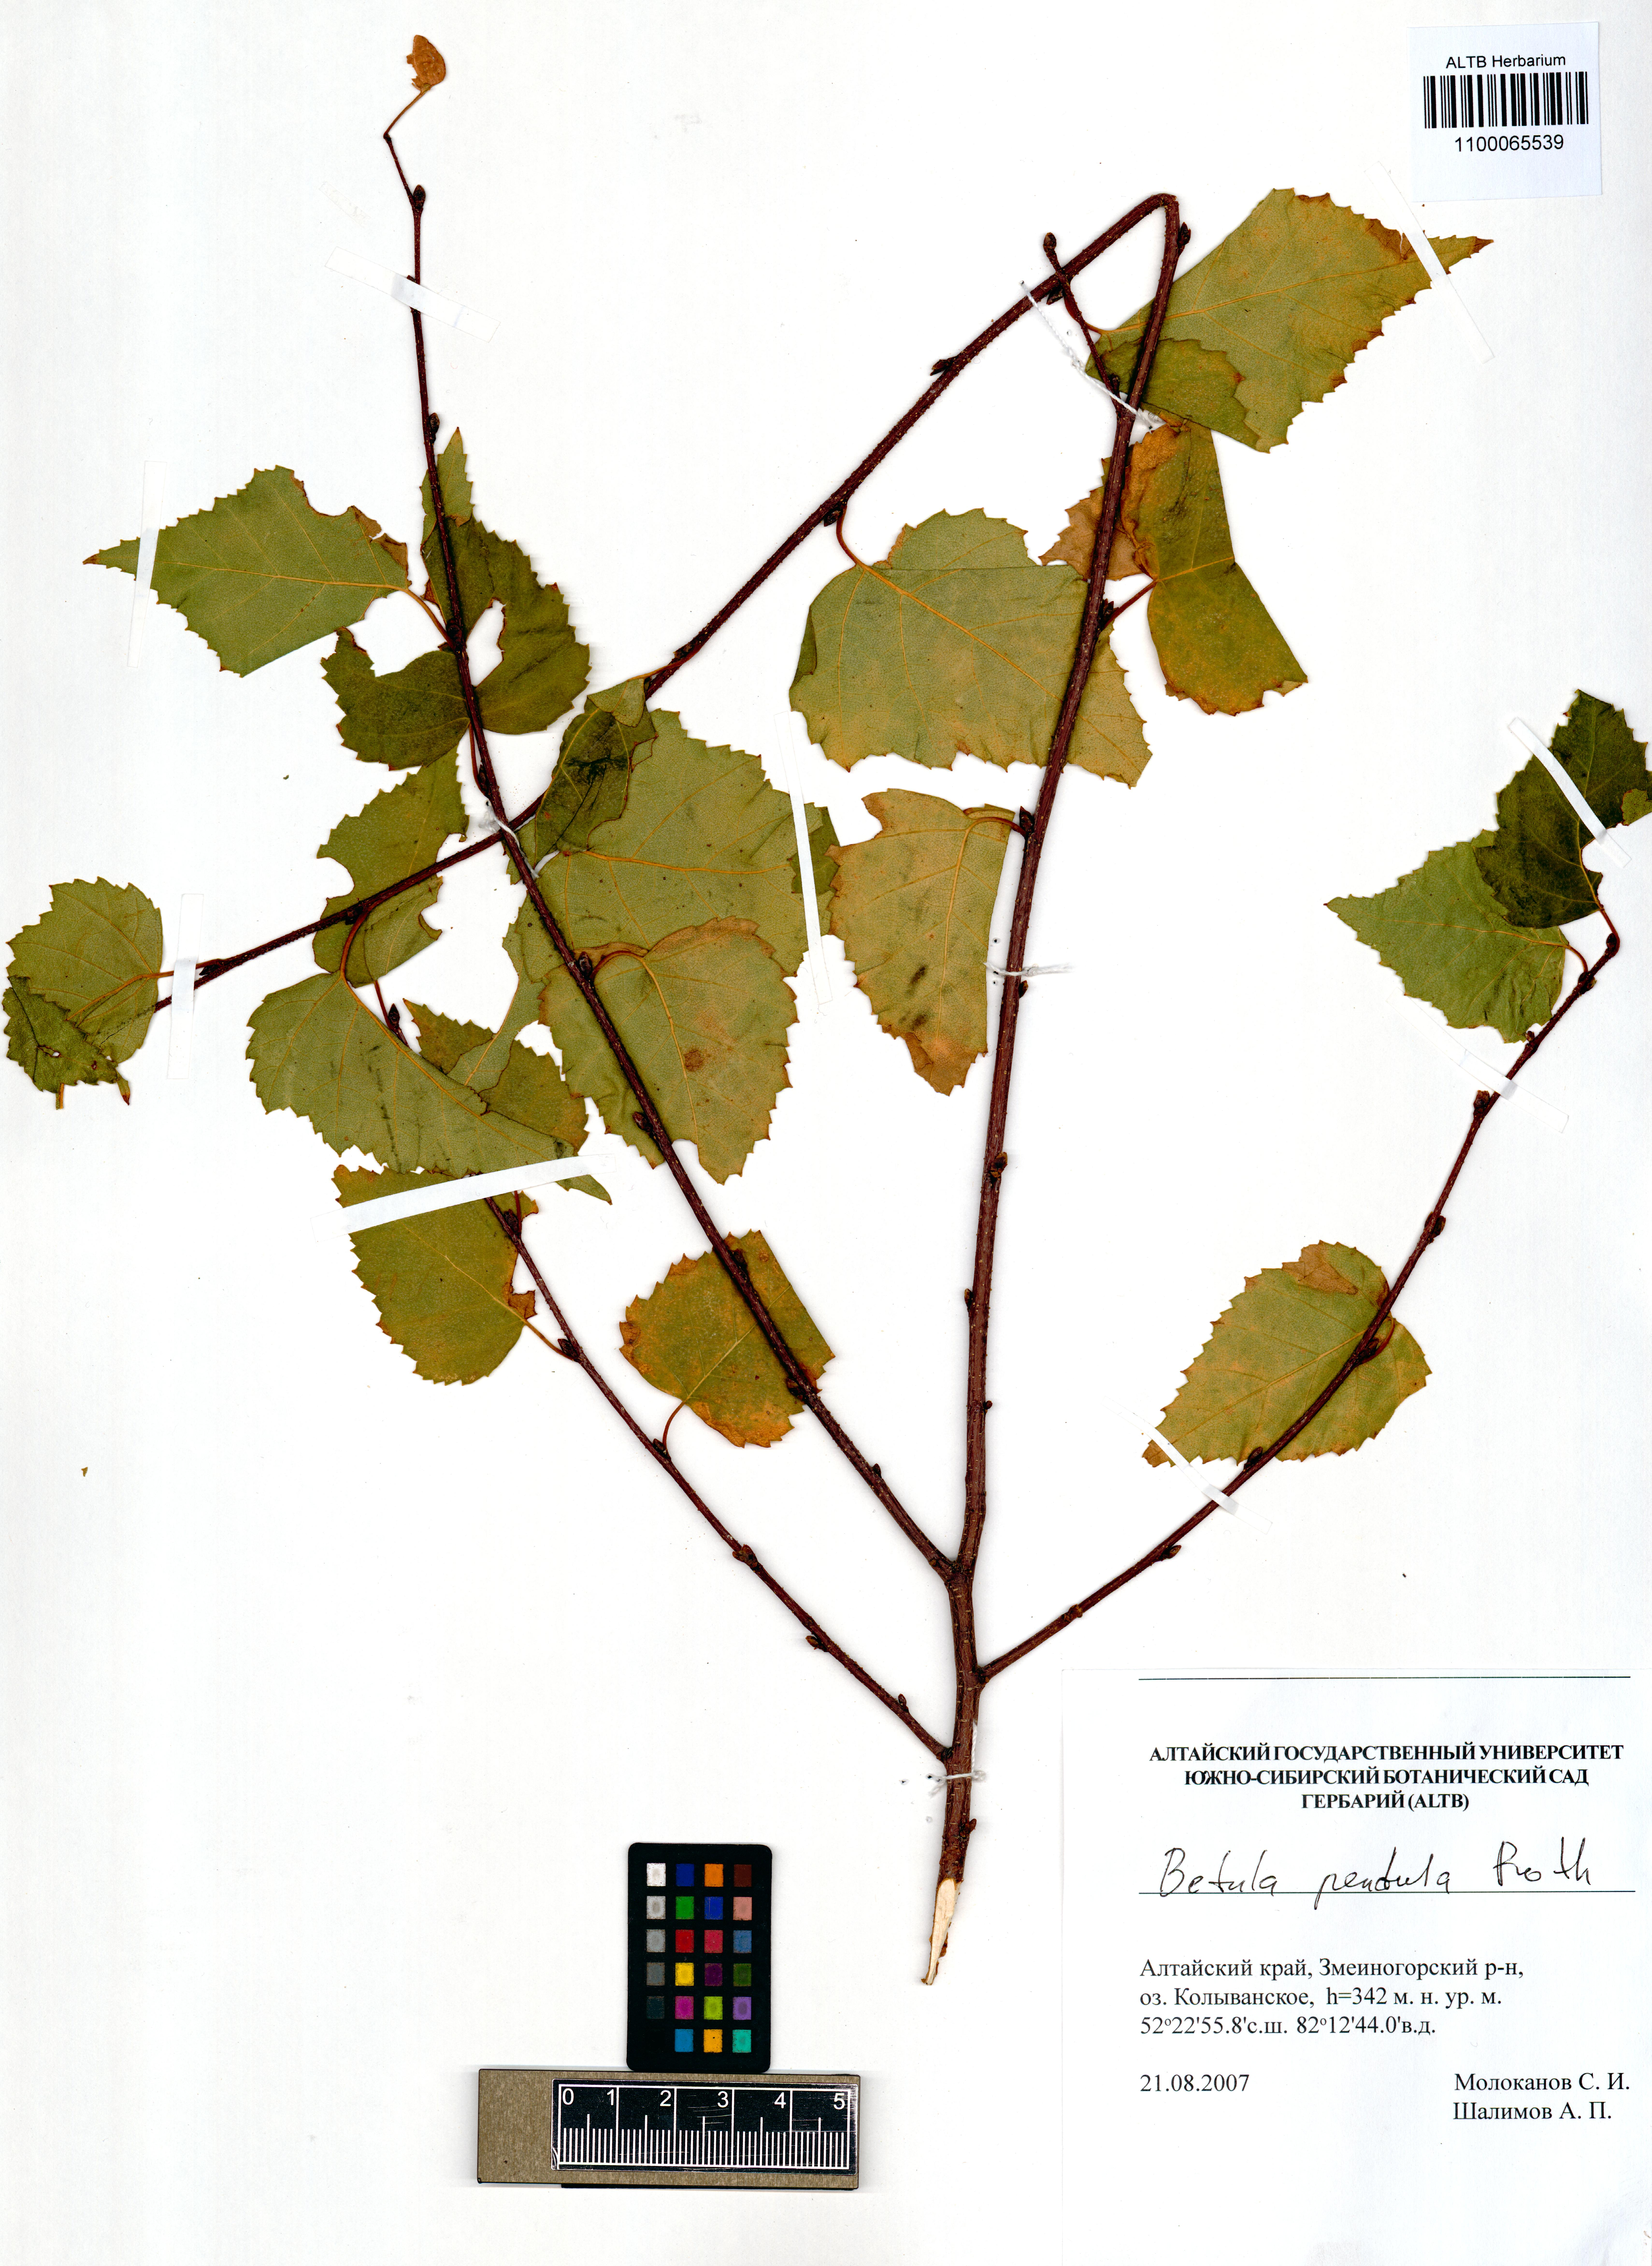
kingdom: Plantae
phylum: Tracheophyta
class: Magnoliopsida
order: Fagales
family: Betulaceae
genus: Betula
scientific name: Betula pendula
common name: Silver birch
